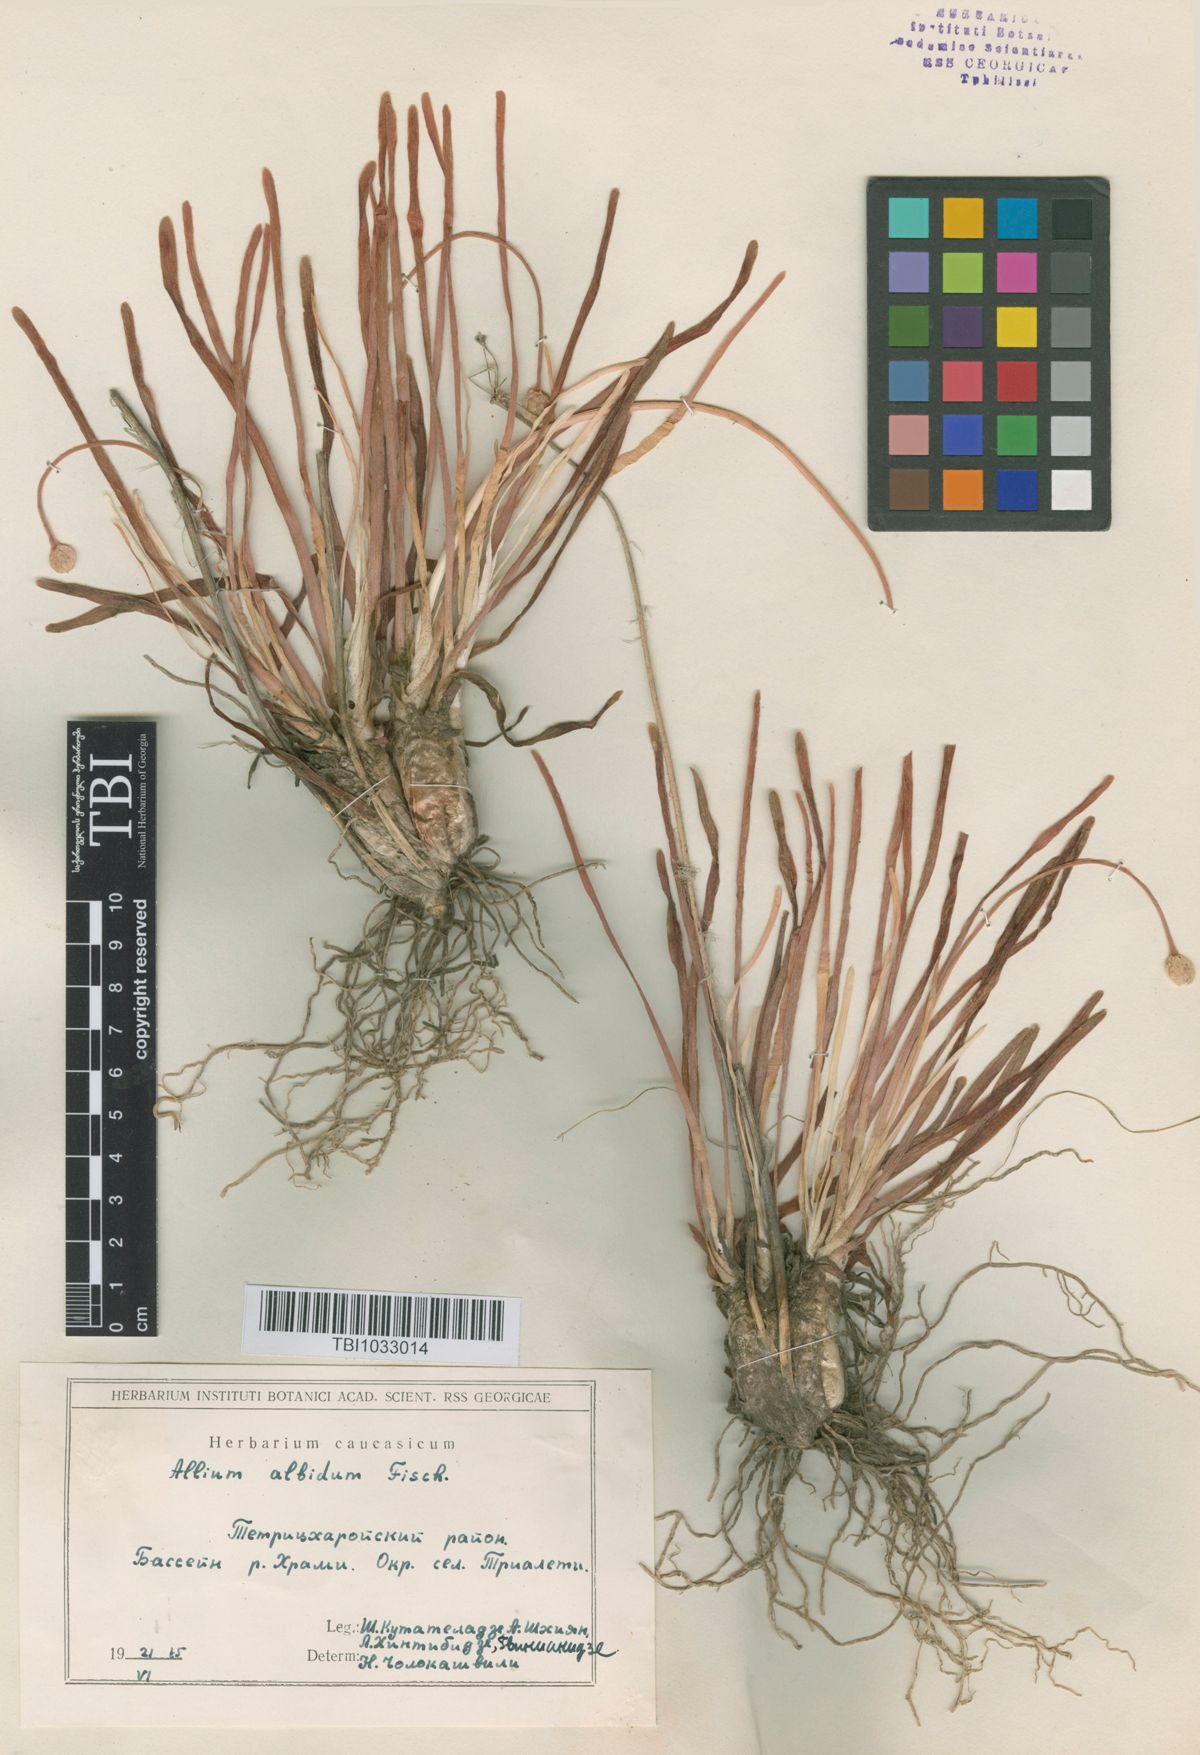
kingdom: Plantae
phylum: Tracheophyta
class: Liliopsida
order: Asparagales
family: Amaryllidaceae
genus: Allium
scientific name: Allium denudatum
